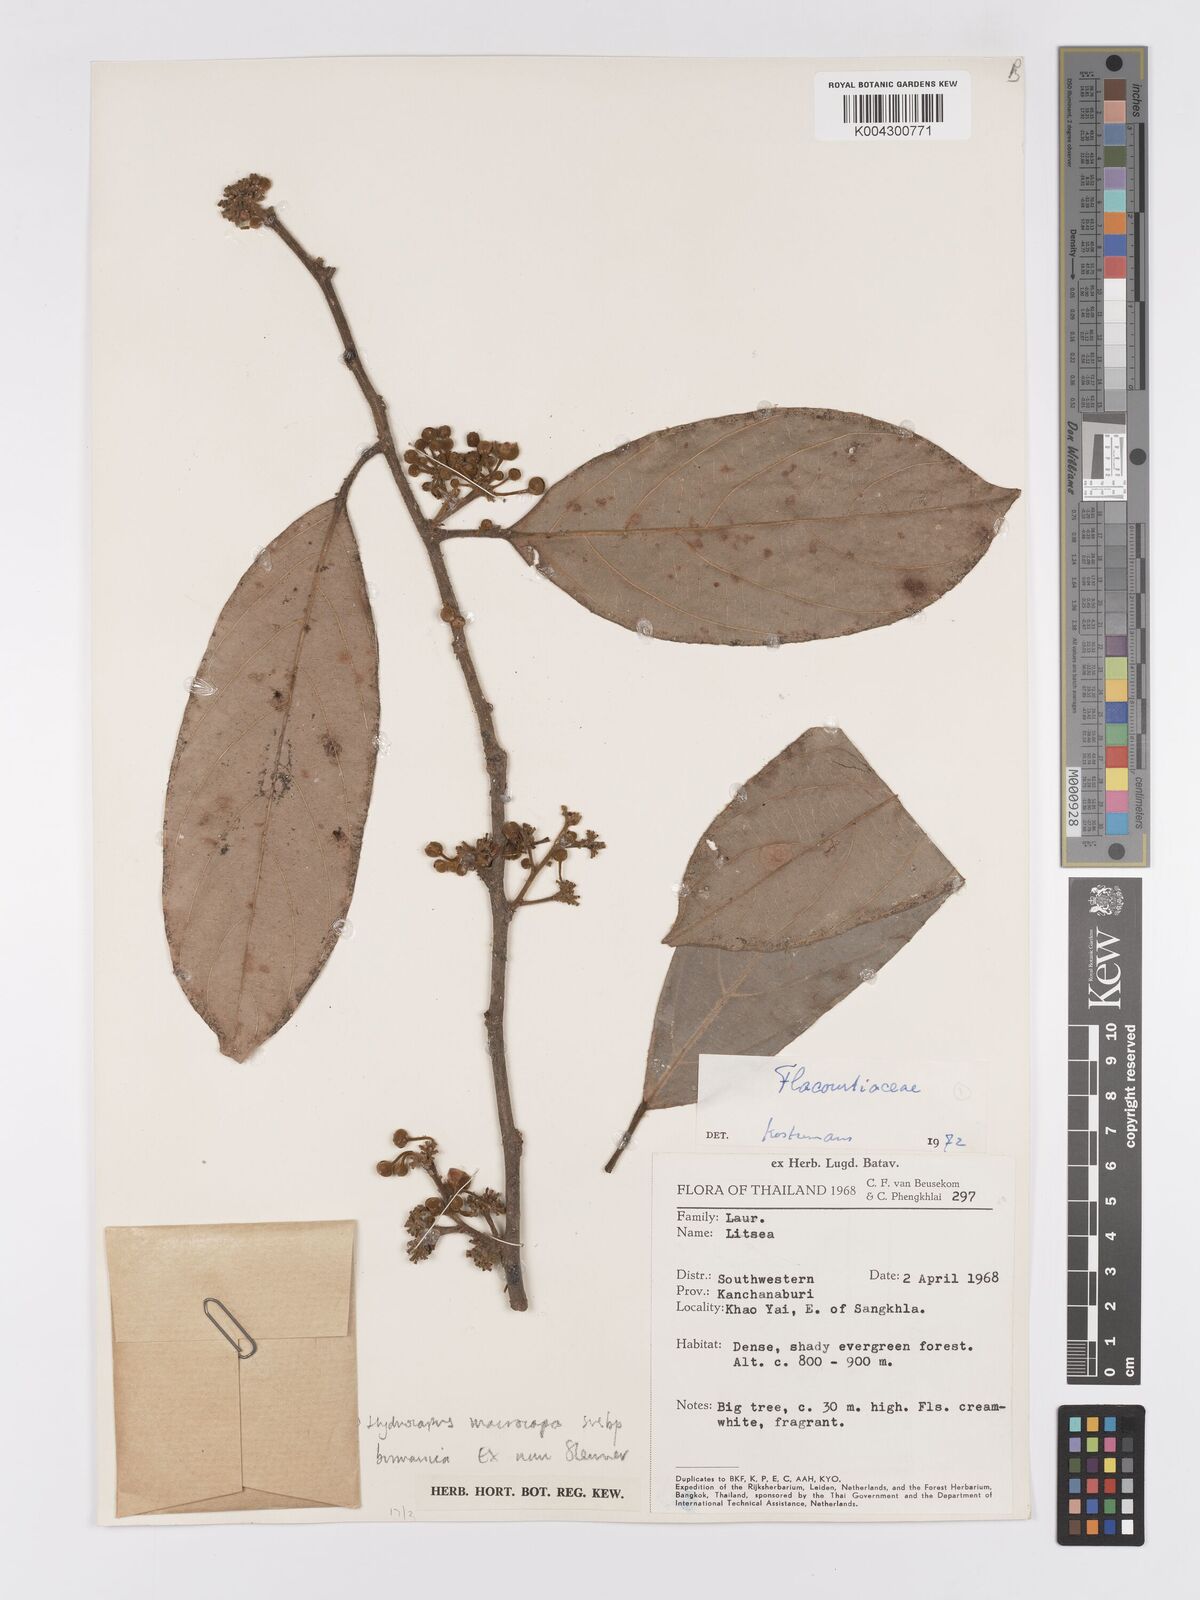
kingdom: Plantae
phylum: Tracheophyta
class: Magnoliopsida
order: Malpighiales
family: Achariaceae
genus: Hydnocarpus
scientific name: Hydnocarpus macrocarpus
